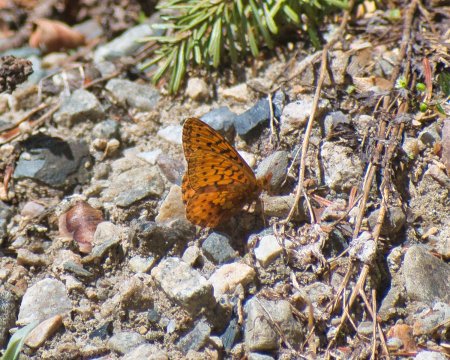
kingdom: Animalia
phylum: Arthropoda
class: Insecta
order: Lepidoptera
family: Nymphalidae
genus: Boloria
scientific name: Boloria epithore
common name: Pacific Fritillary
